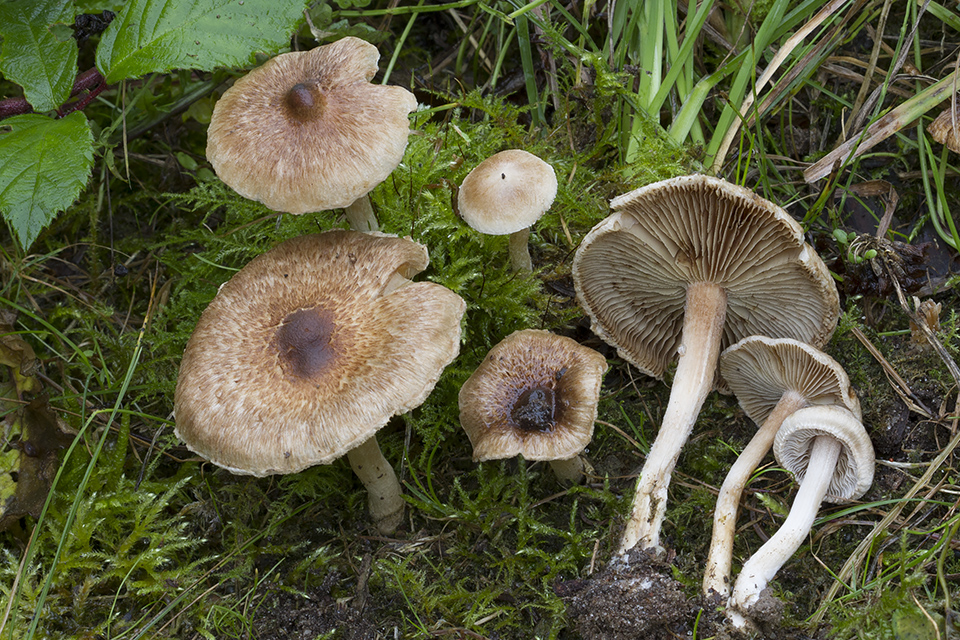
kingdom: Fungi
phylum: Basidiomycota
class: Agaricomycetes
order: Agaricales
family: Inocybaceae
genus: Inocybe
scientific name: Inocybe
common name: trævlhat
